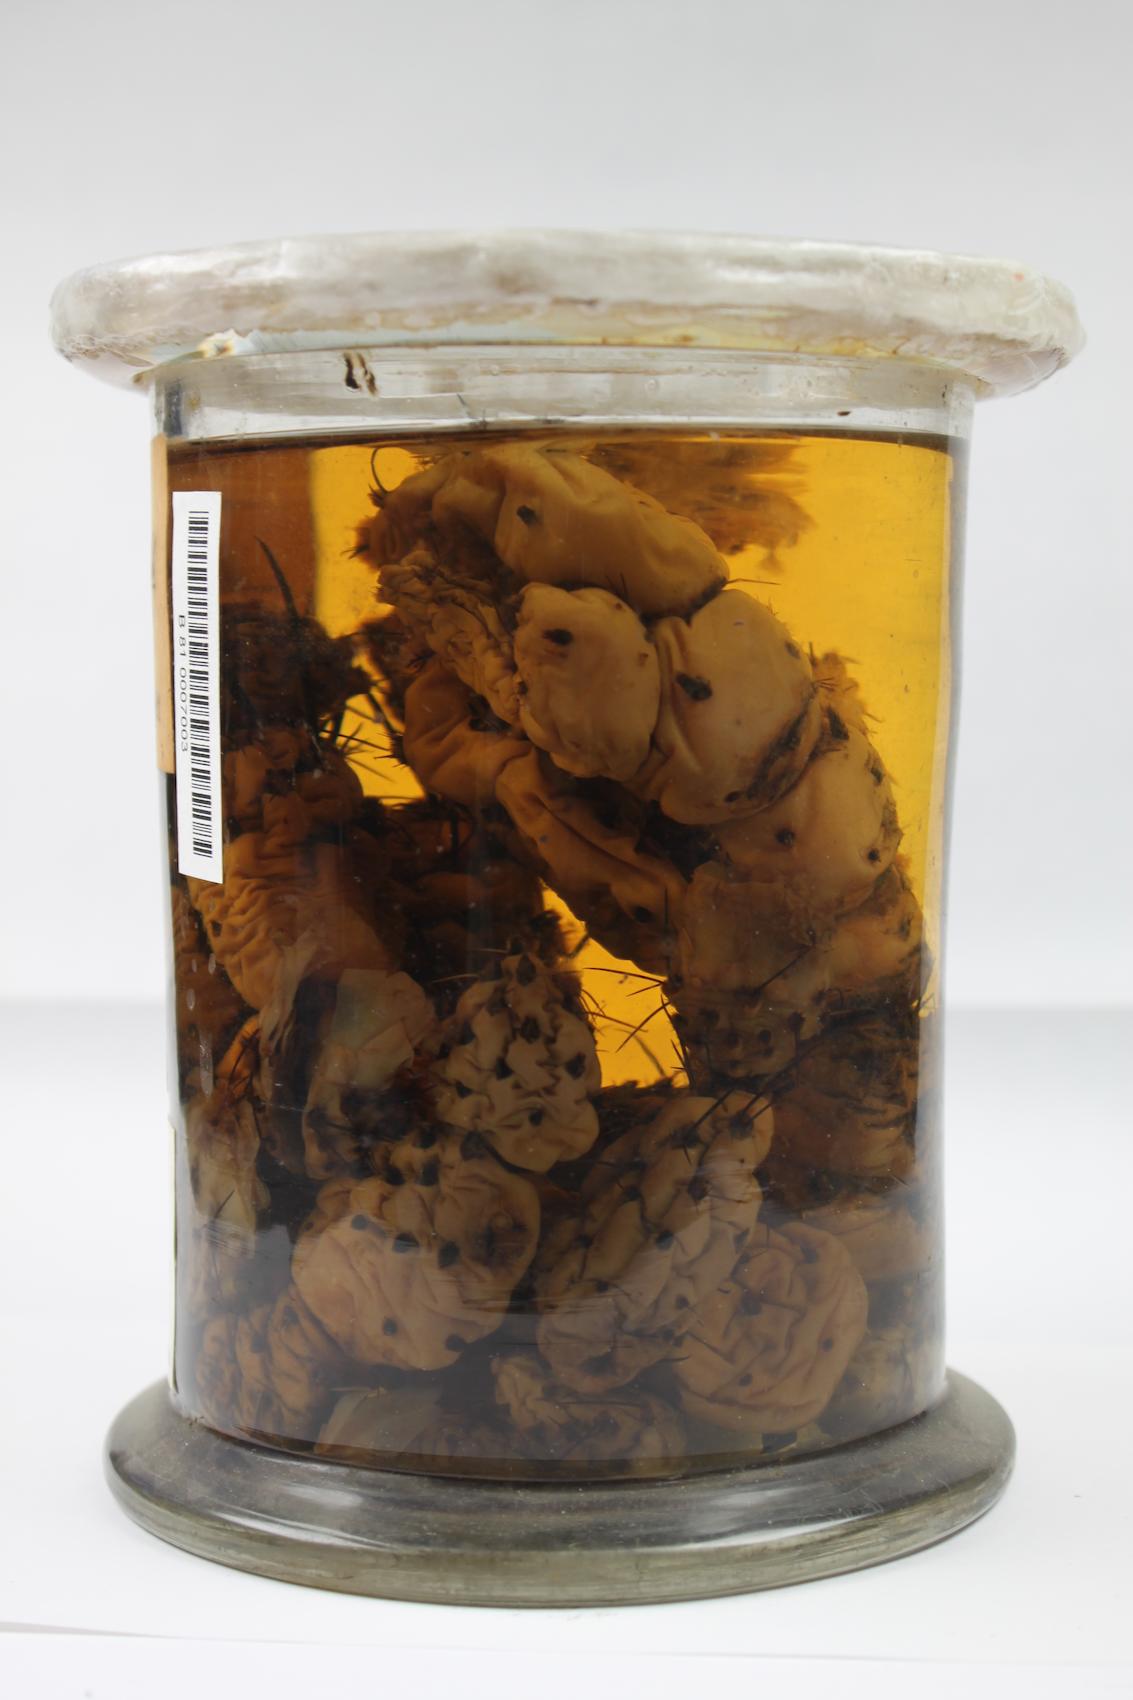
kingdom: Plantae
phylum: Tracheophyta
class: Magnoliopsida
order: Caryophyllales
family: Cactaceae
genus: Cumulopuntia
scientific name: Cumulopuntia sphaerica
